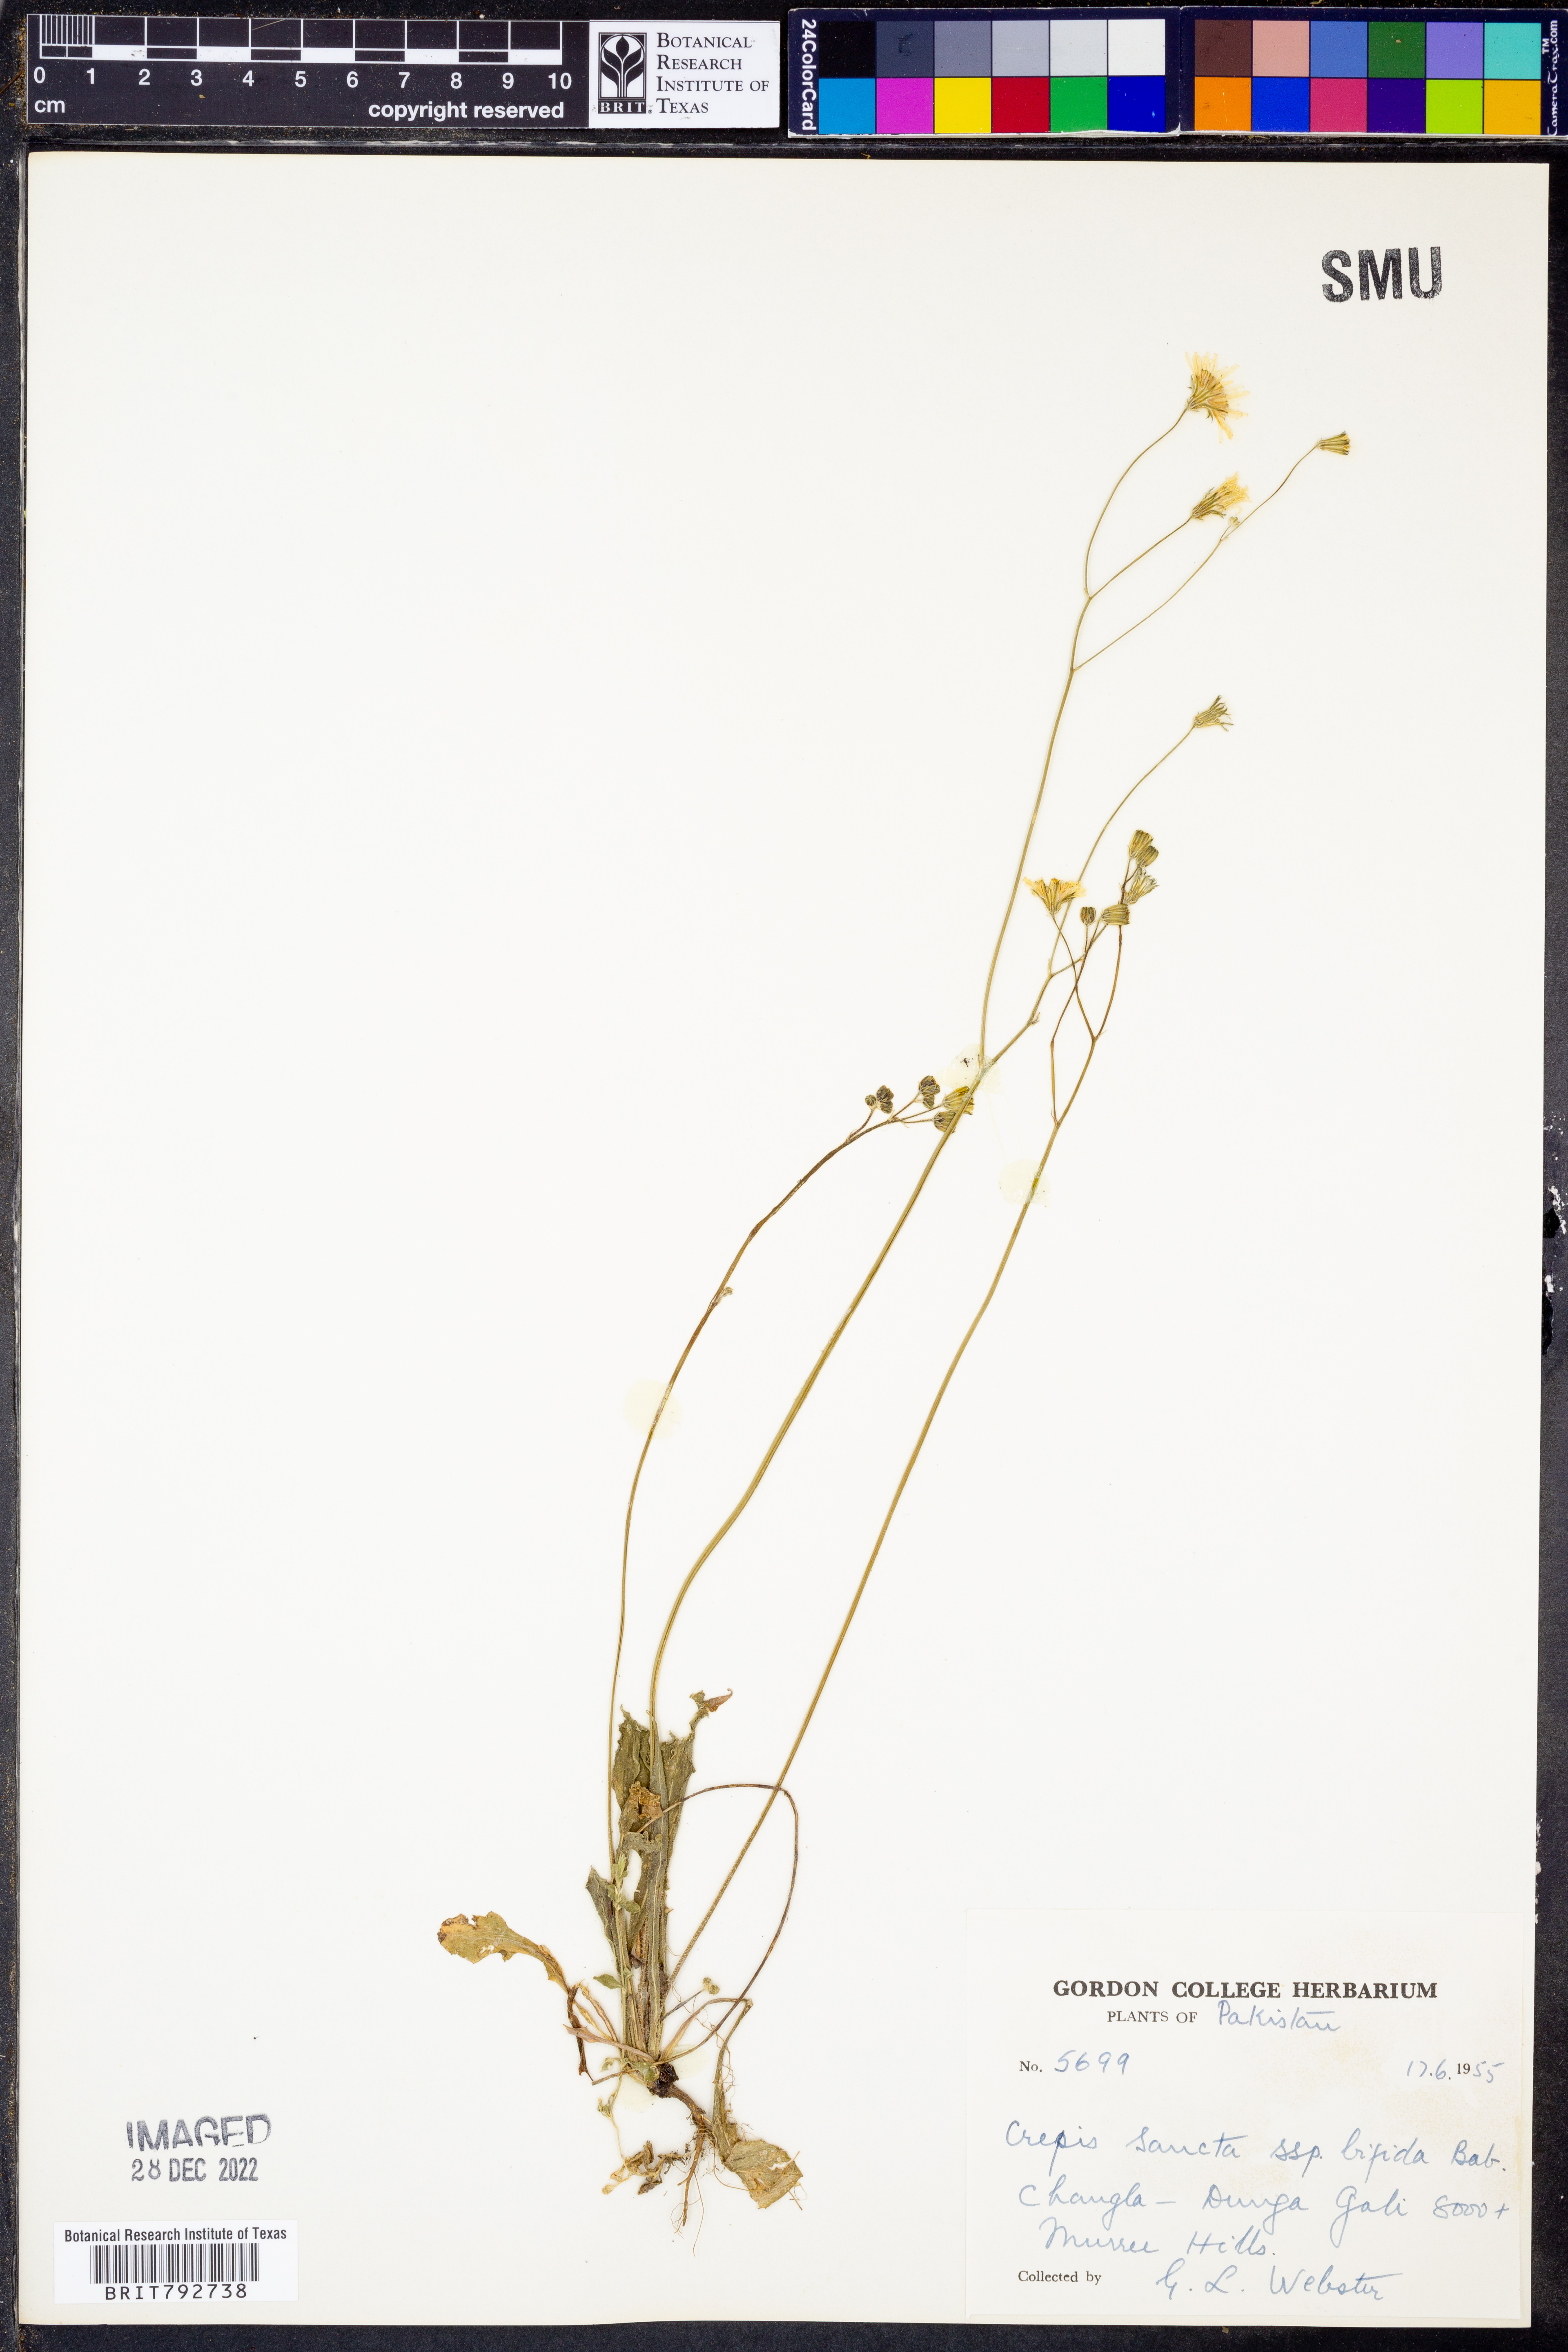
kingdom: Plantae
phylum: Tracheophyta
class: Magnoliopsida
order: Asterales
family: Asteraceae
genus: Crepis
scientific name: Crepis sancta
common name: Hawk's-beard
